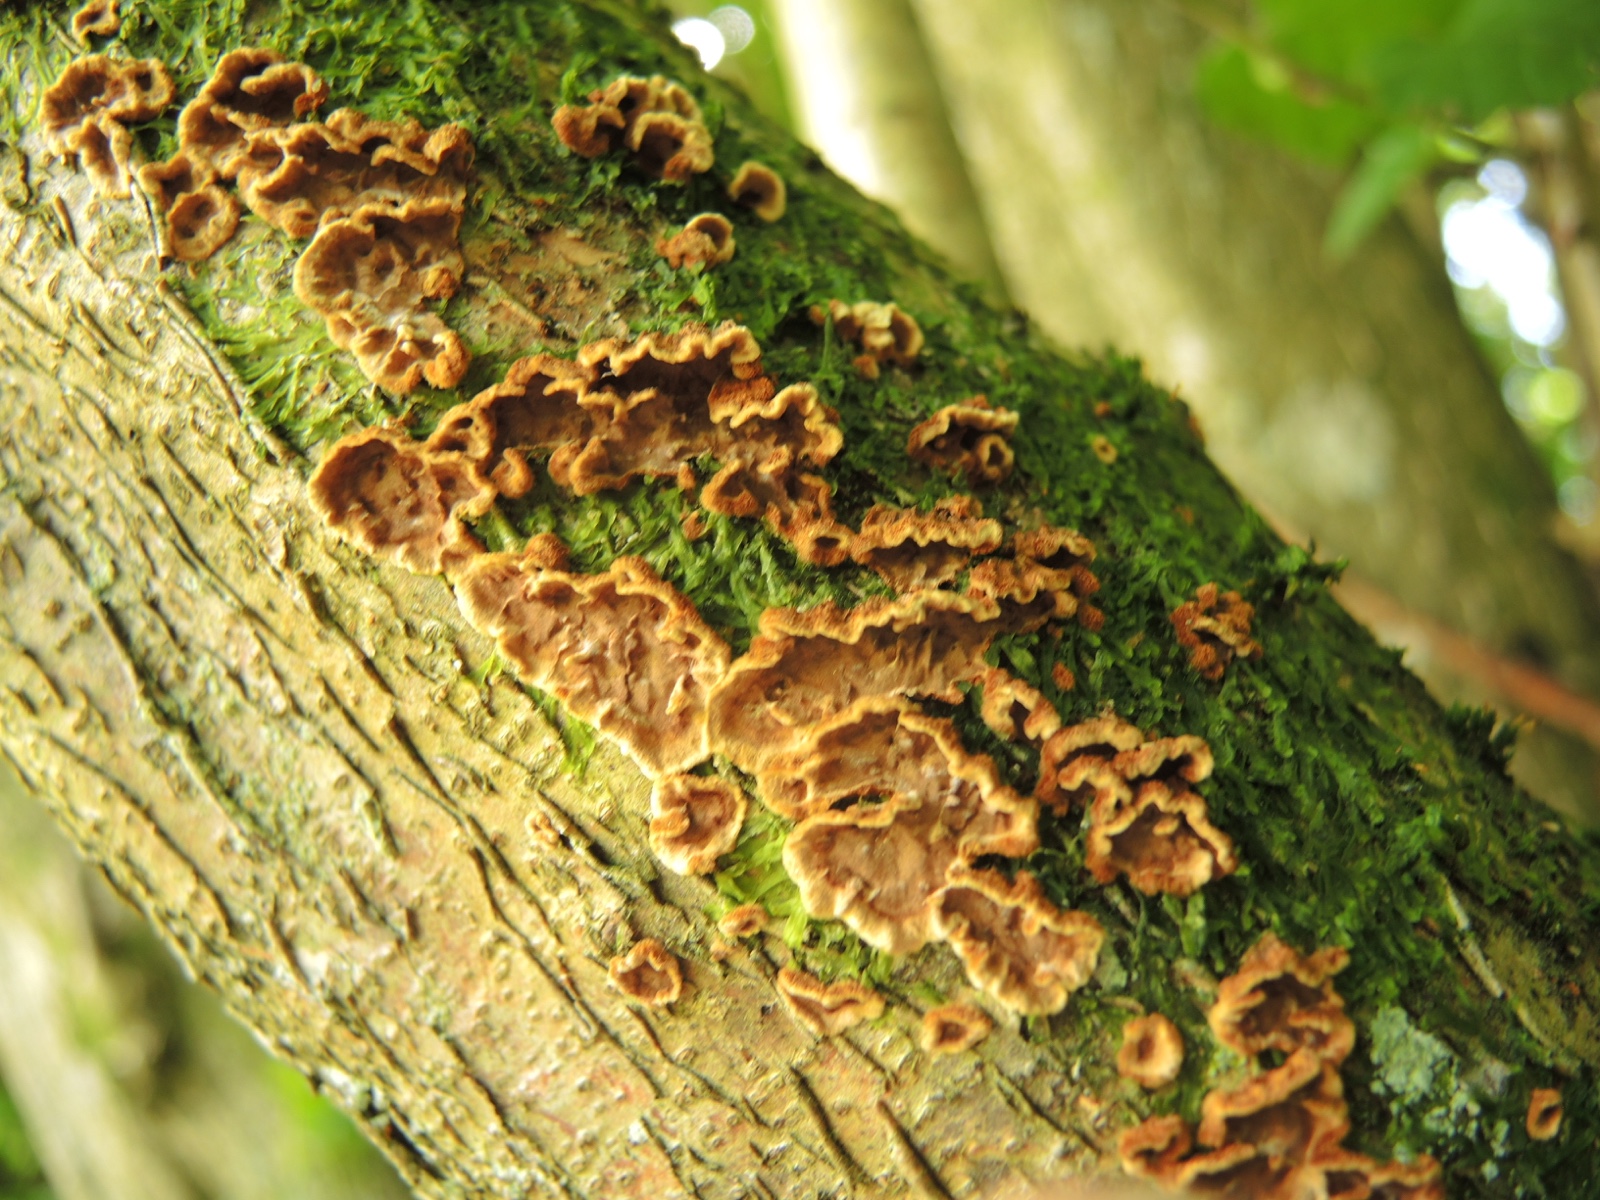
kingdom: Fungi
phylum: Basidiomycota
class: Agaricomycetes
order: Hymenochaetales
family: Hymenochaetaceae
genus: Hydnoporia
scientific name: Hydnoporia tabacina
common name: tobaksbrun ruslædersvamp
